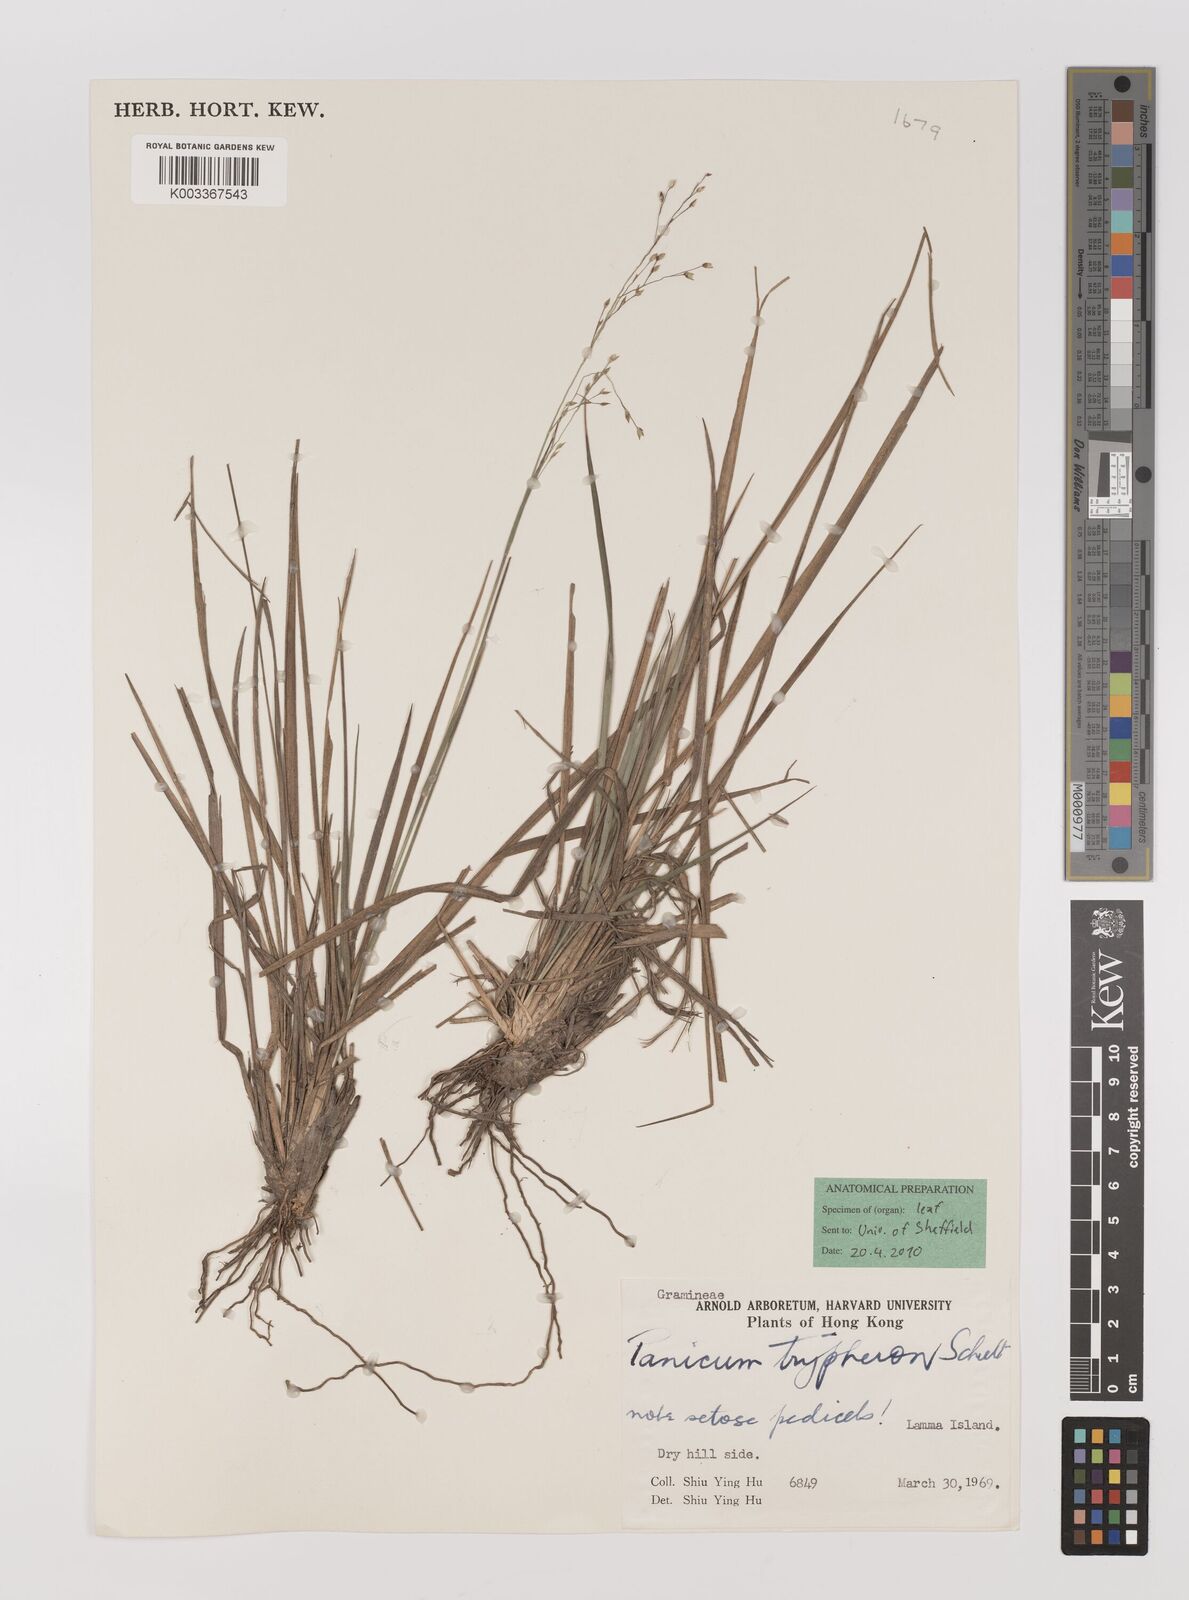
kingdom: Plantae
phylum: Tracheophyta
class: Liliopsida
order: Poales
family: Poaceae
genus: Panicum
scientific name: Panicum elegantissimum
